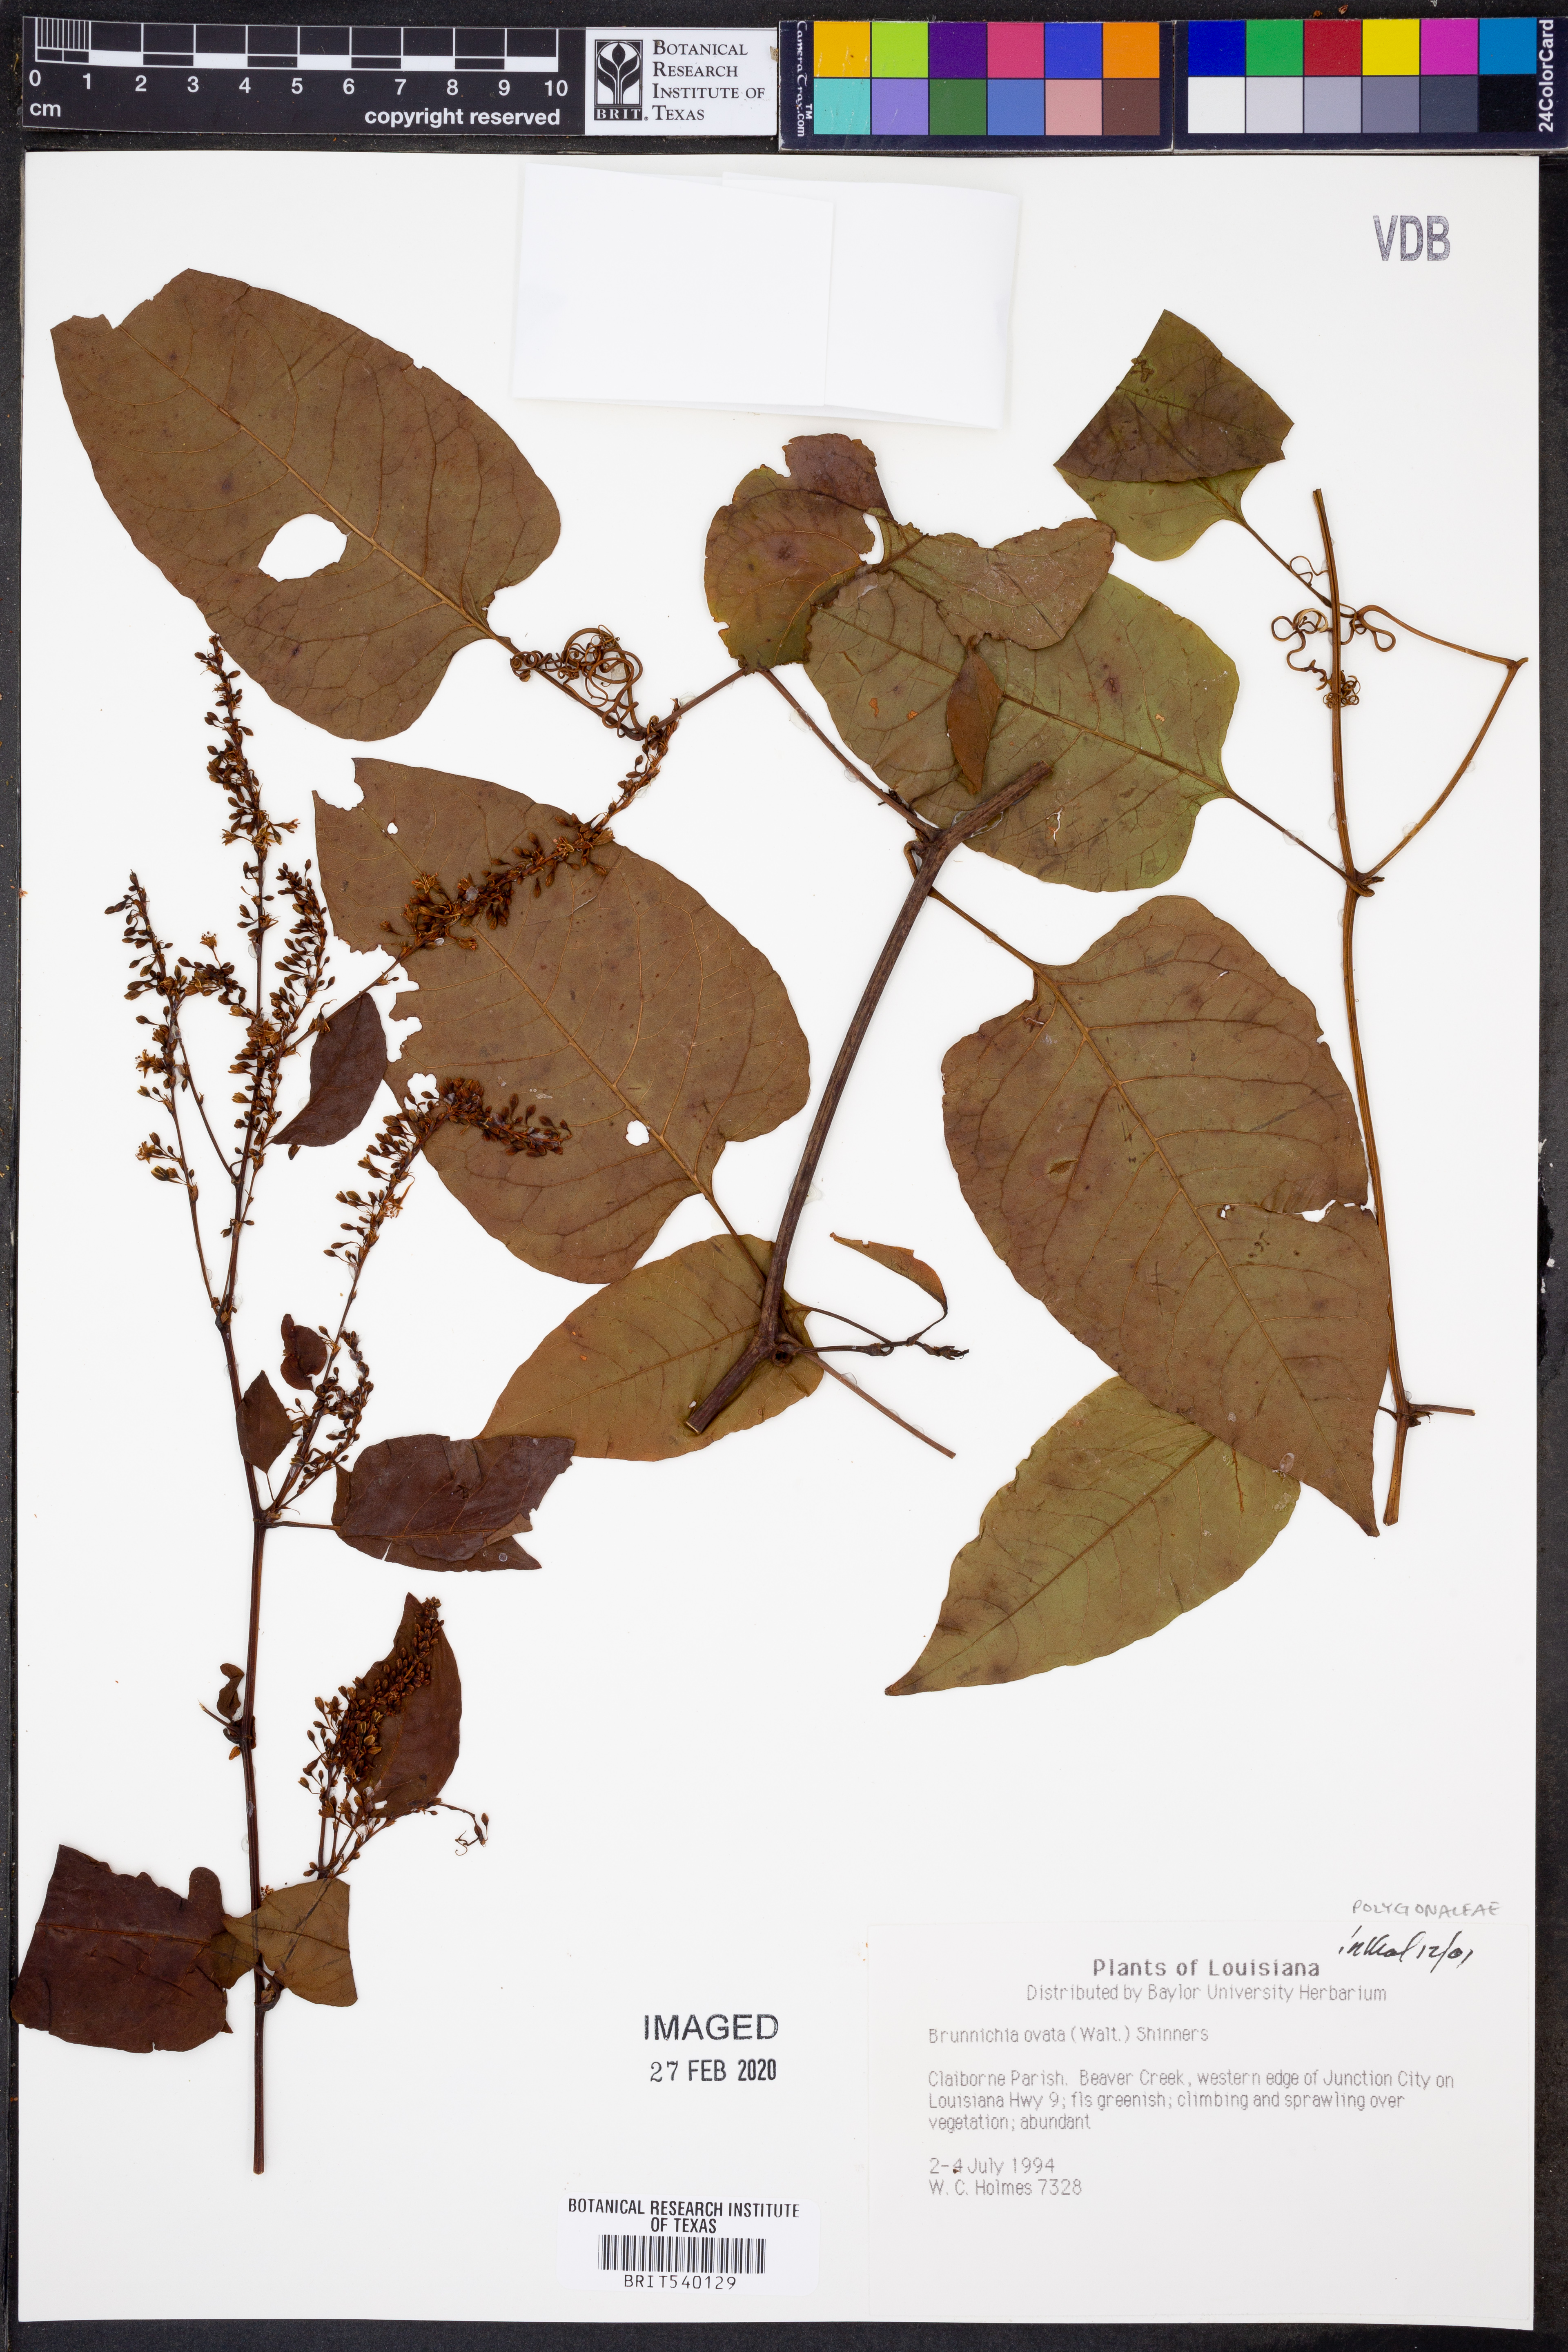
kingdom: Plantae
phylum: Tracheophyta
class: Magnoliopsida
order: Caryophyllales
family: Polygonaceae
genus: Brunnichia
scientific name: Brunnichia ovata
